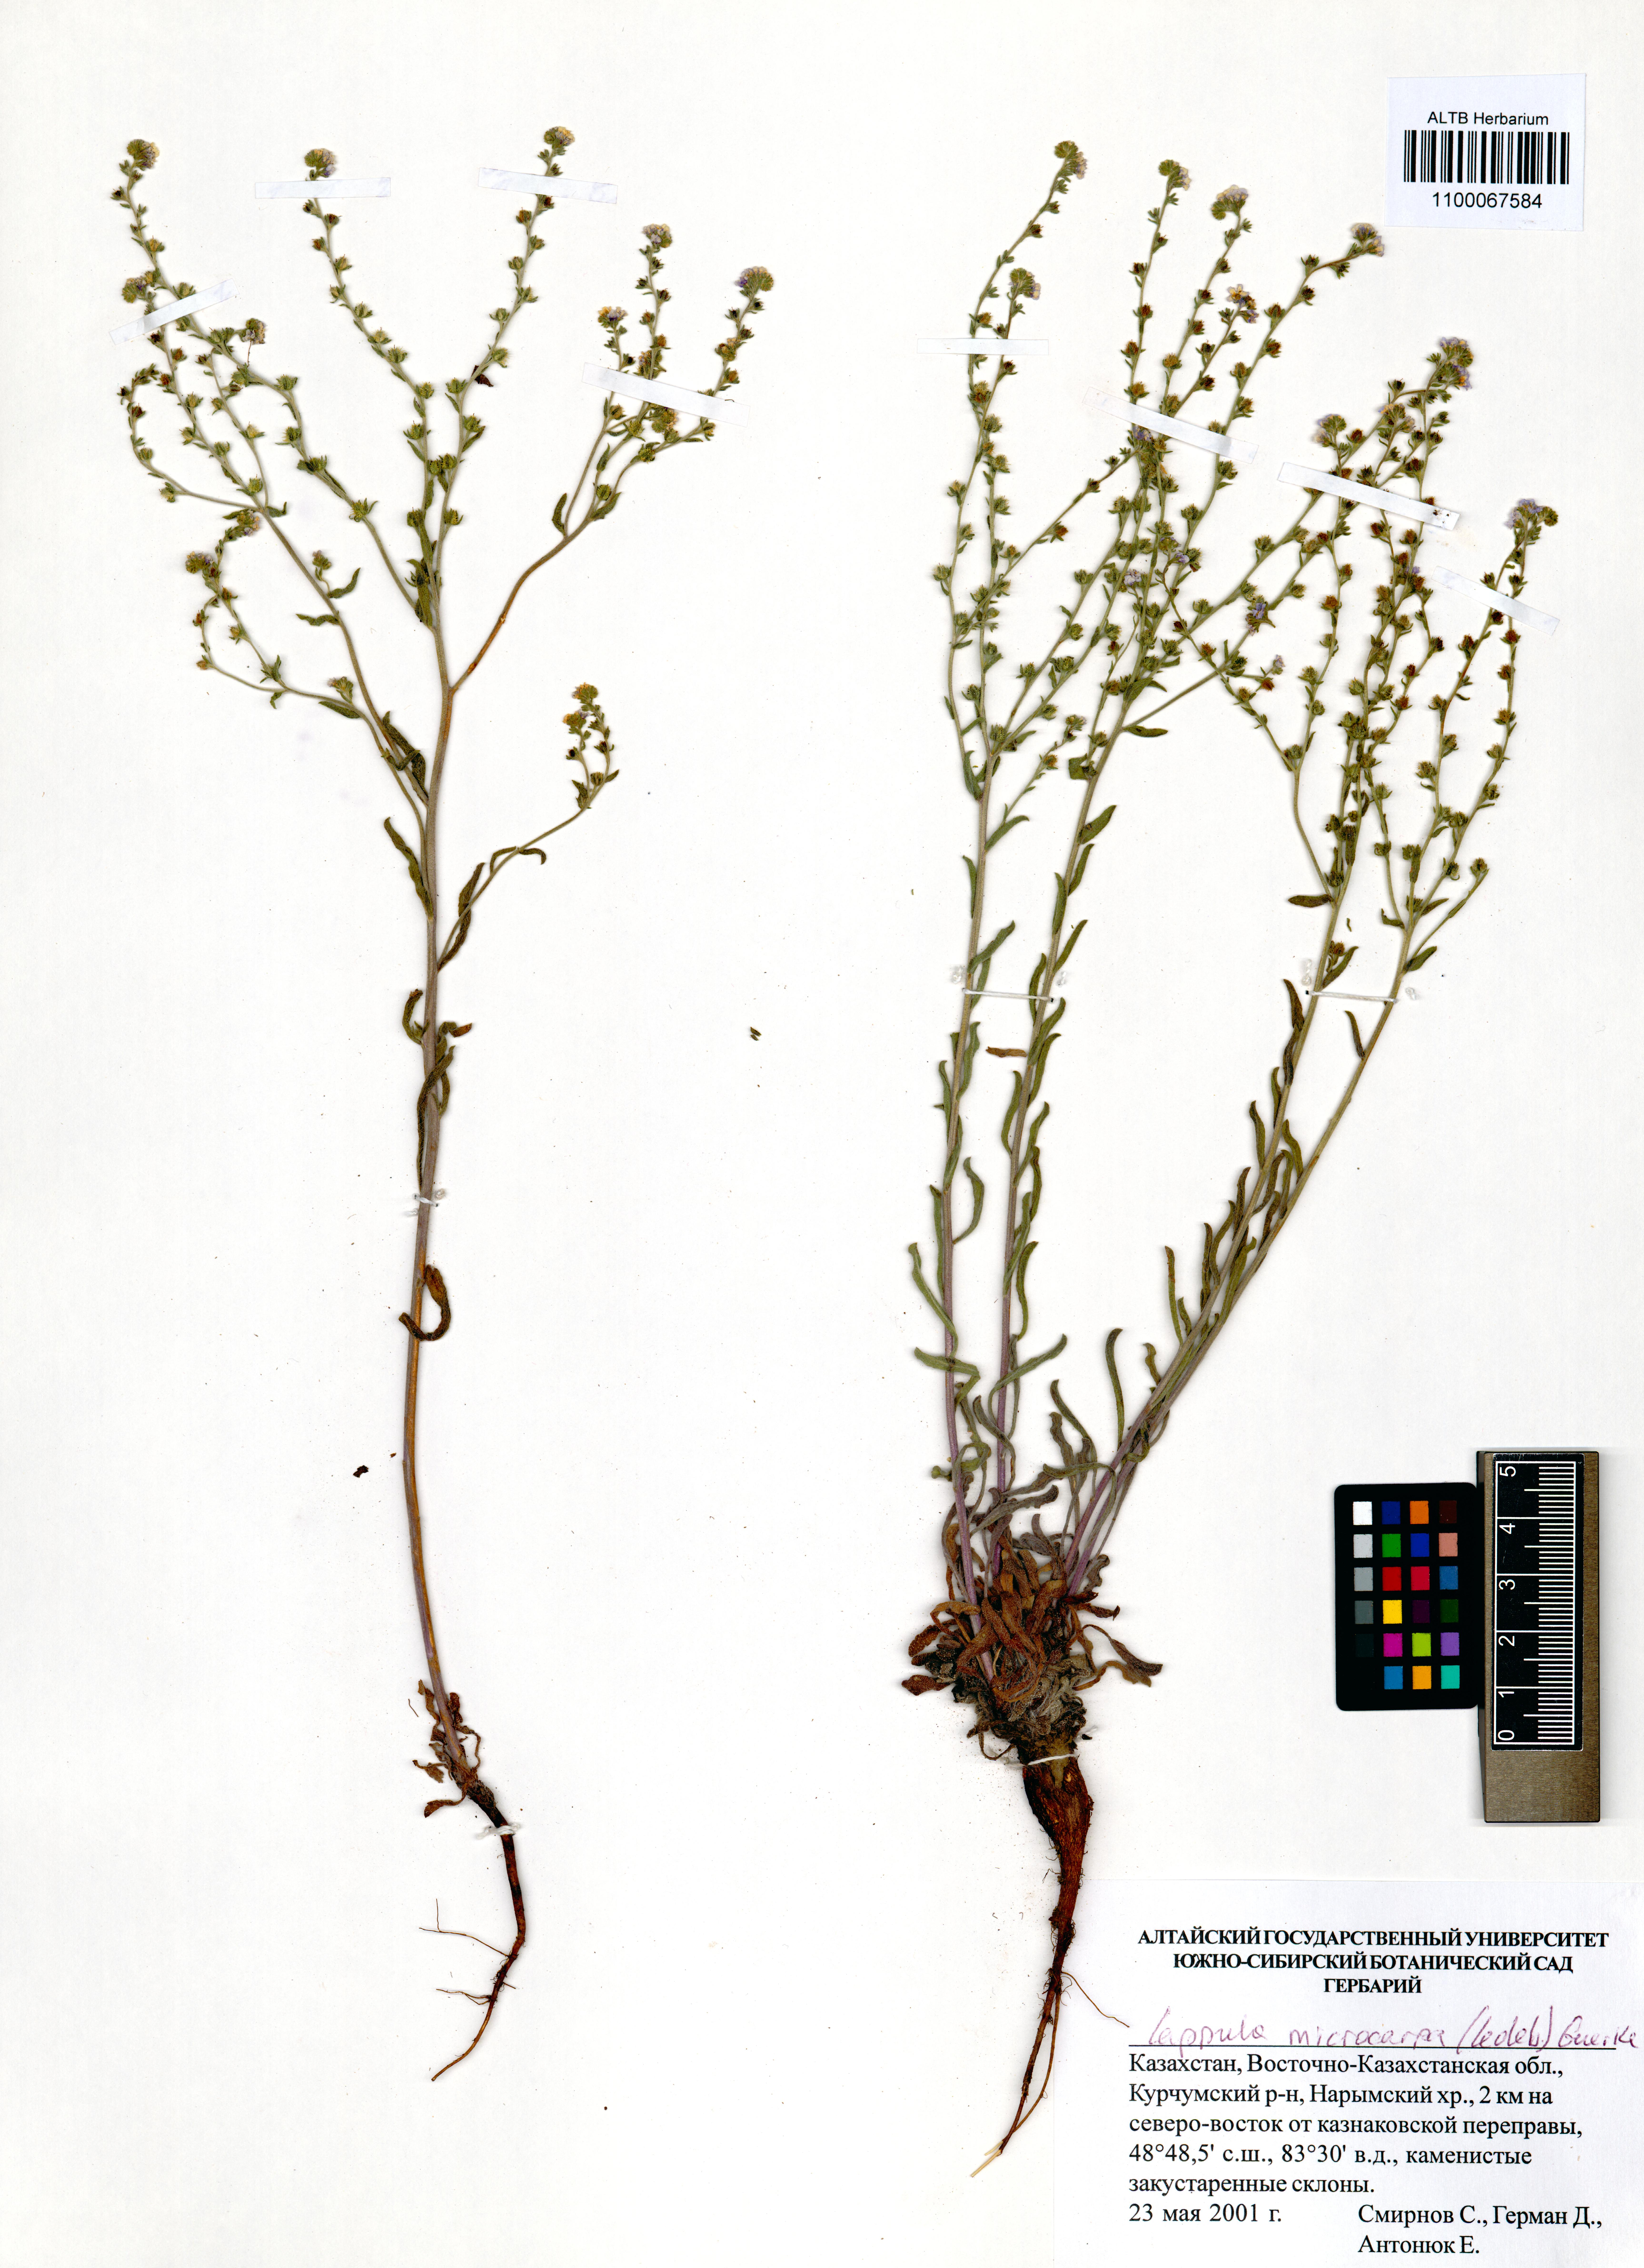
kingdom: Plantae
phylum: Tracheophyta
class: Magnoliopsida
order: Boraginales
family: Boraginaceae
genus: Lappula
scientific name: Lappula microcarpa
